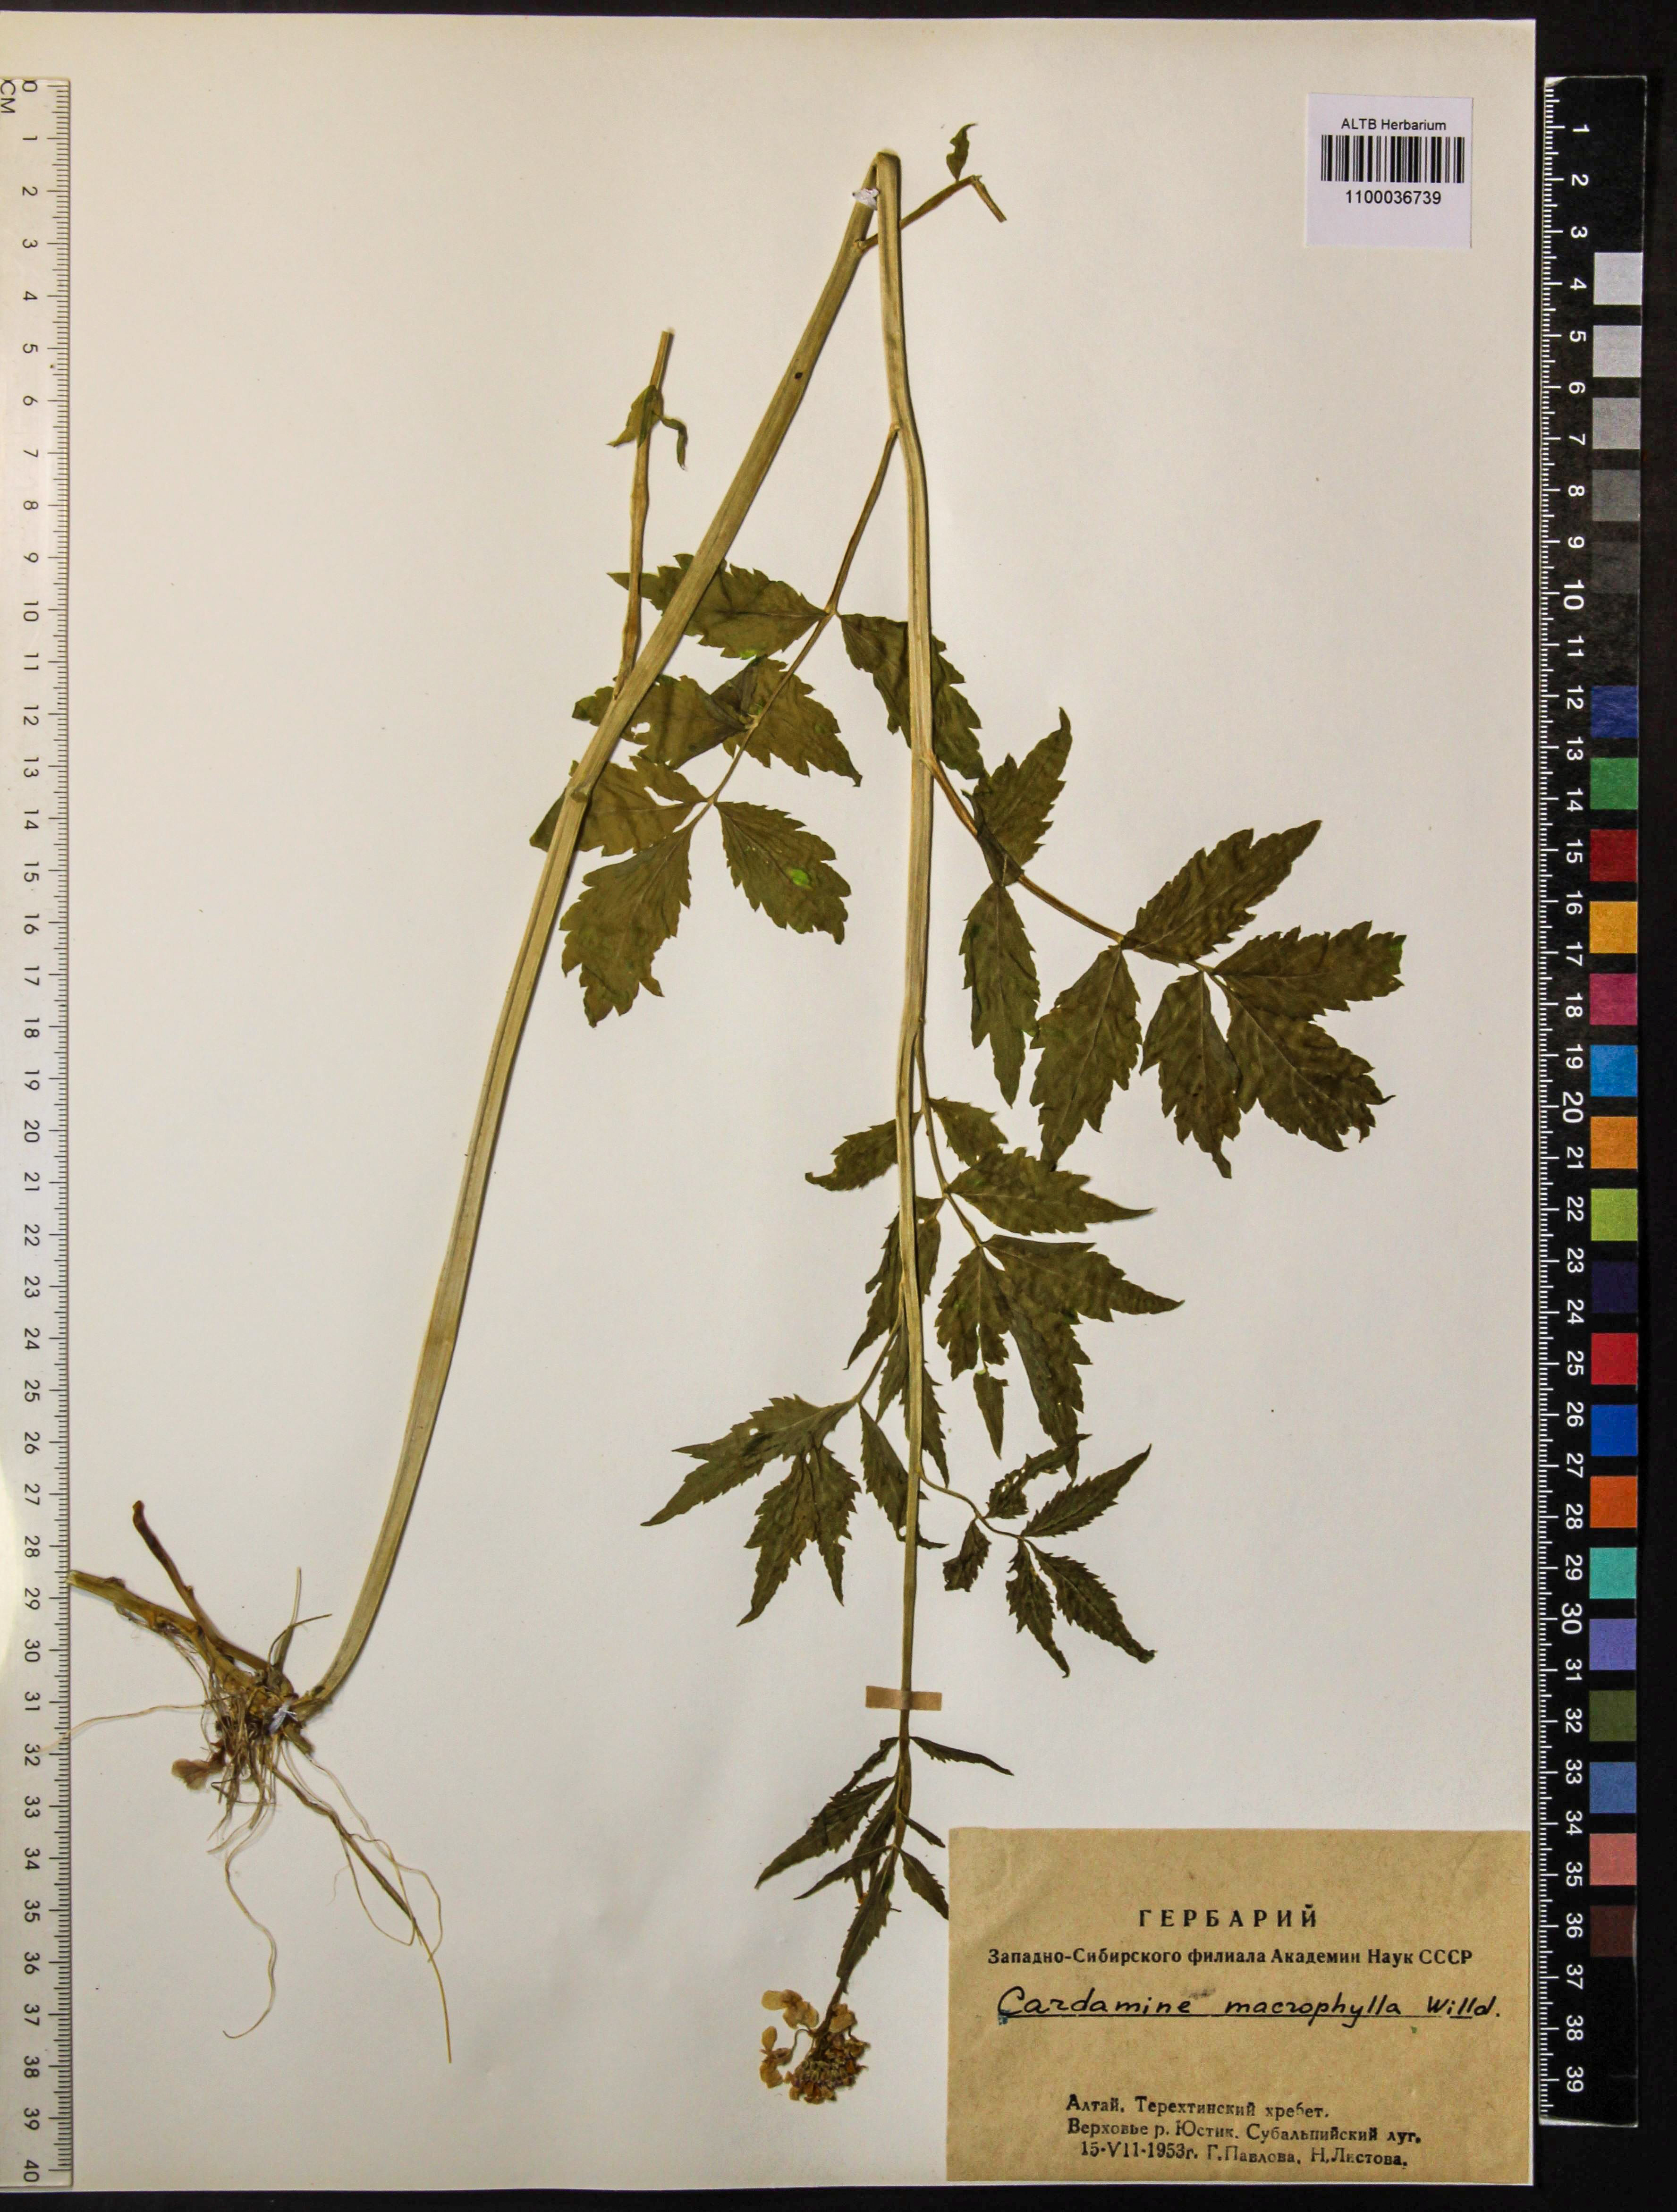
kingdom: Plantae
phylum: Tracheophyta
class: Magnoliopsida
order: Brassicales
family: Brassicaceae
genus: Cardamine
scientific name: Cardamine macrophylla
